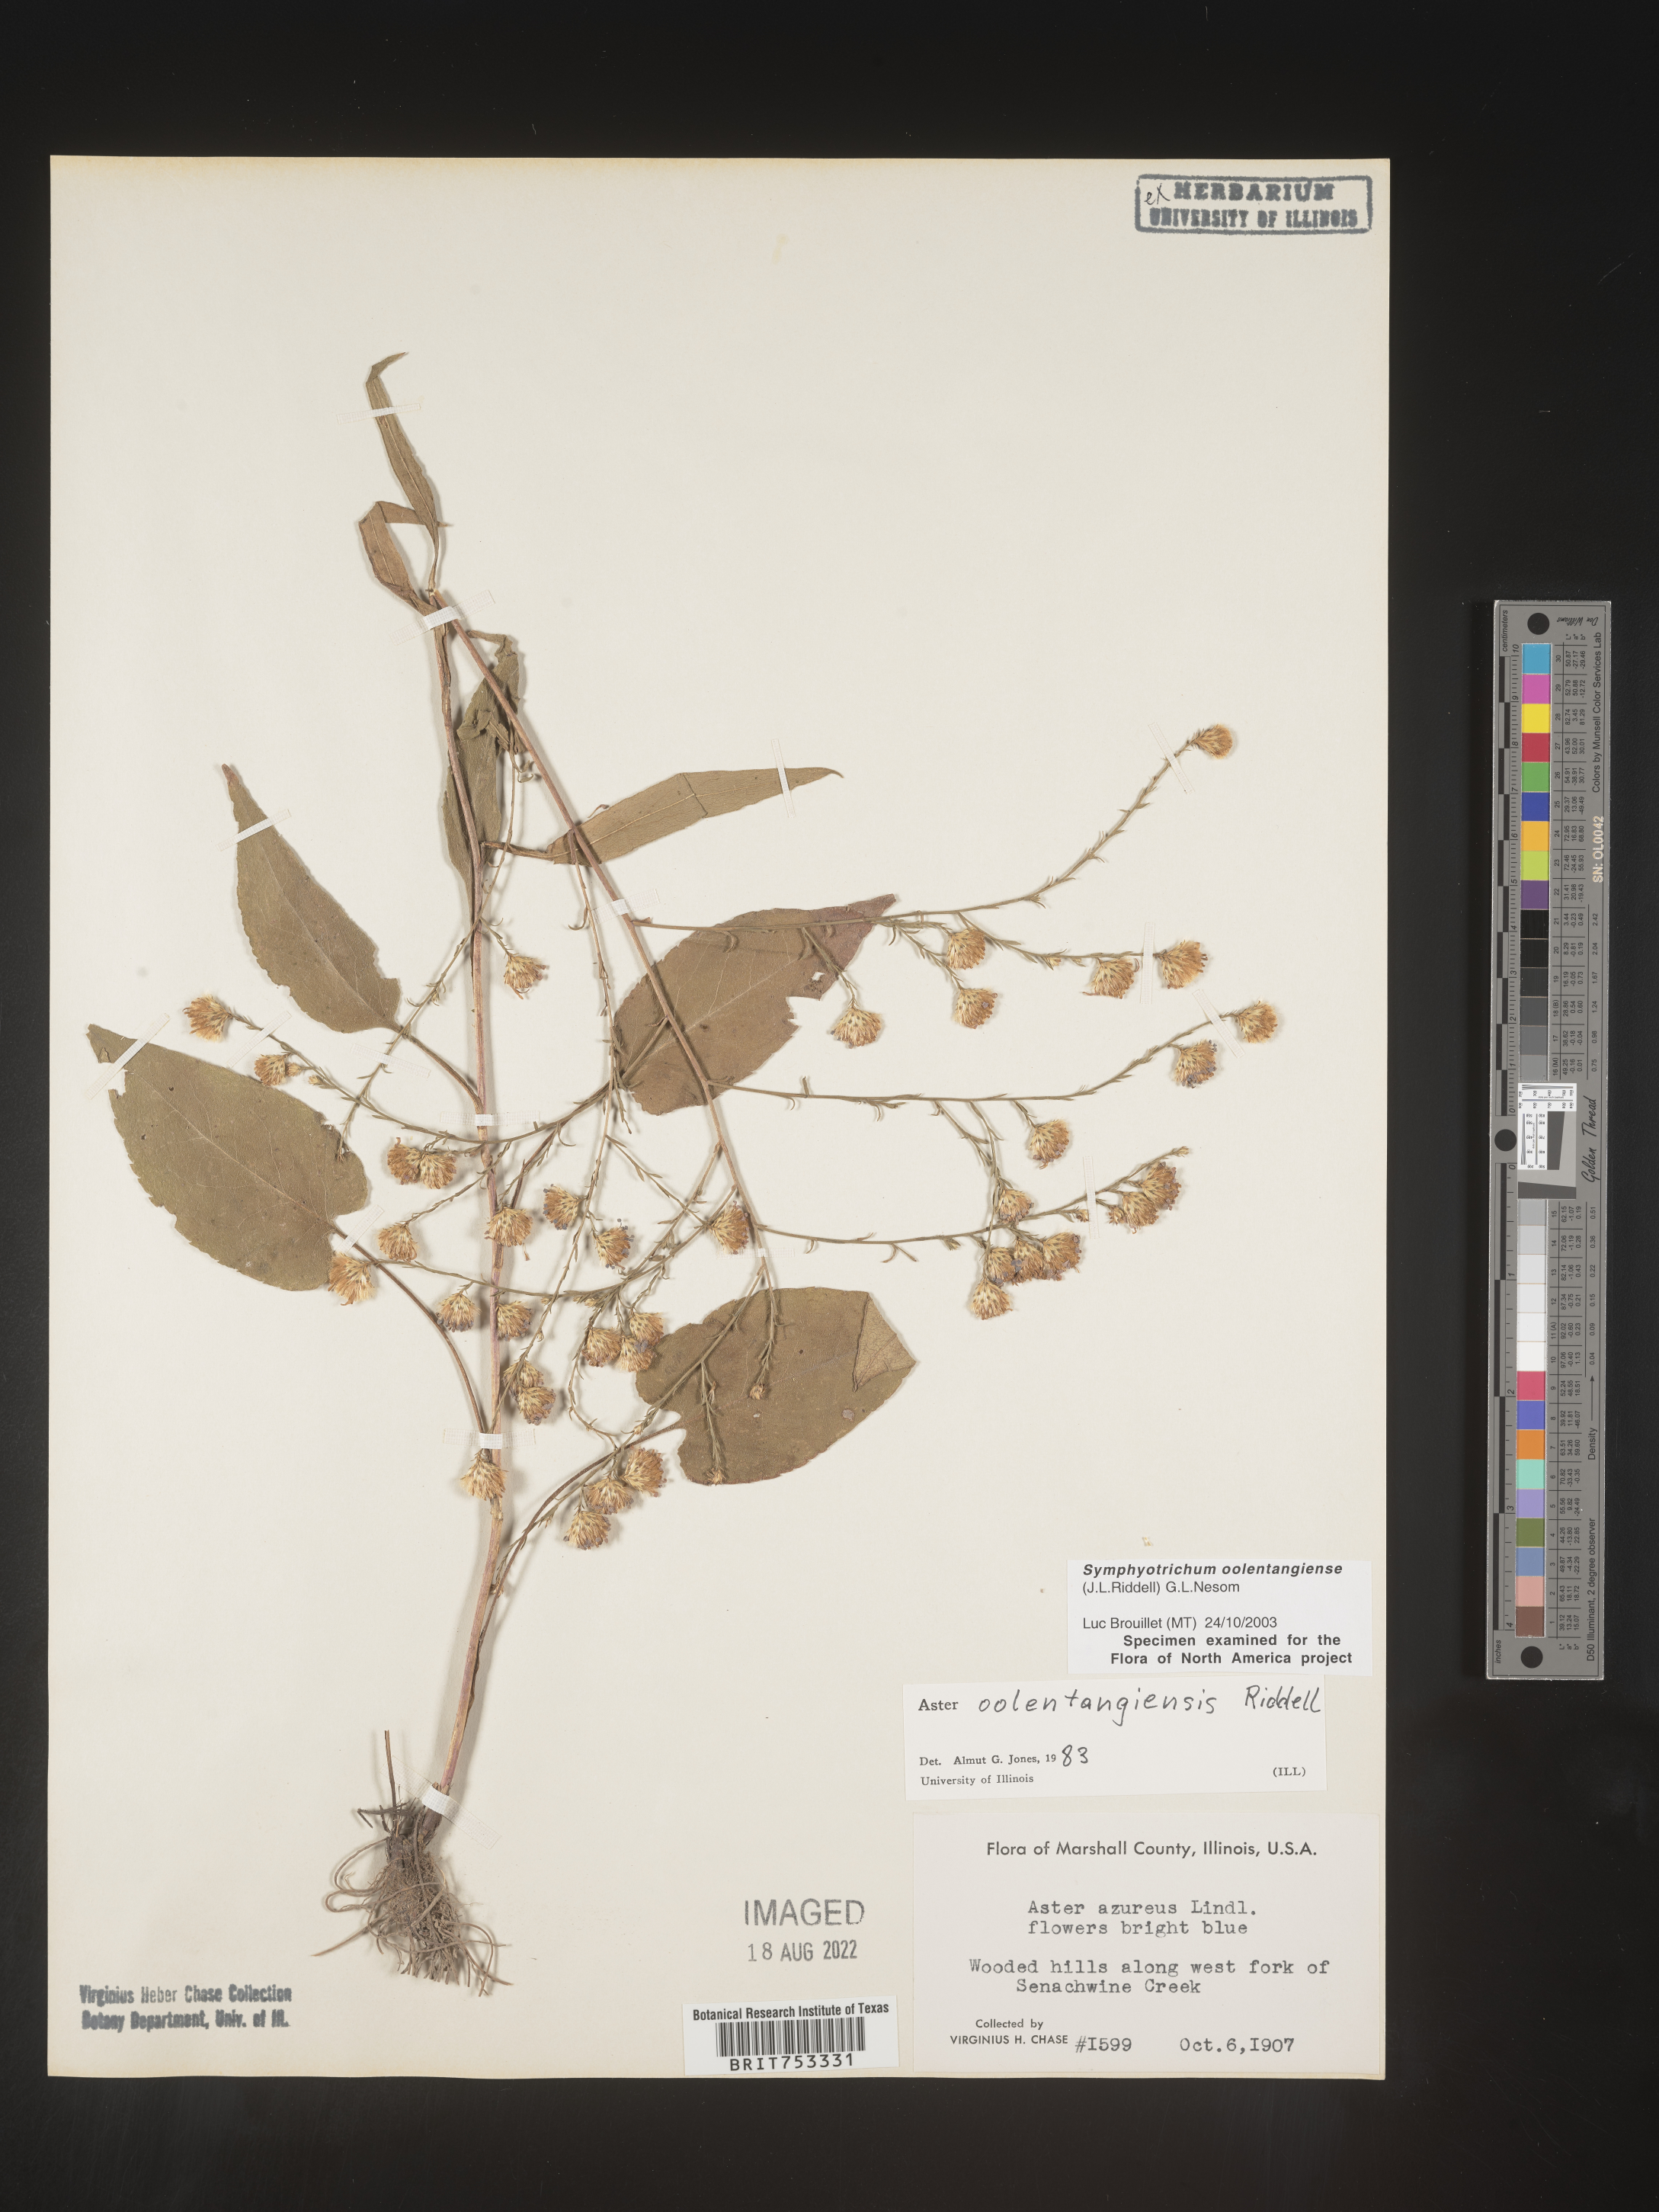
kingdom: Plantae
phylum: Tracheophyta
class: Magnoliopsida
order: Asterales
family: Asteraceae
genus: Symphyotrichum
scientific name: Symphyotrichum oolentangiense
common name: Azure aster
